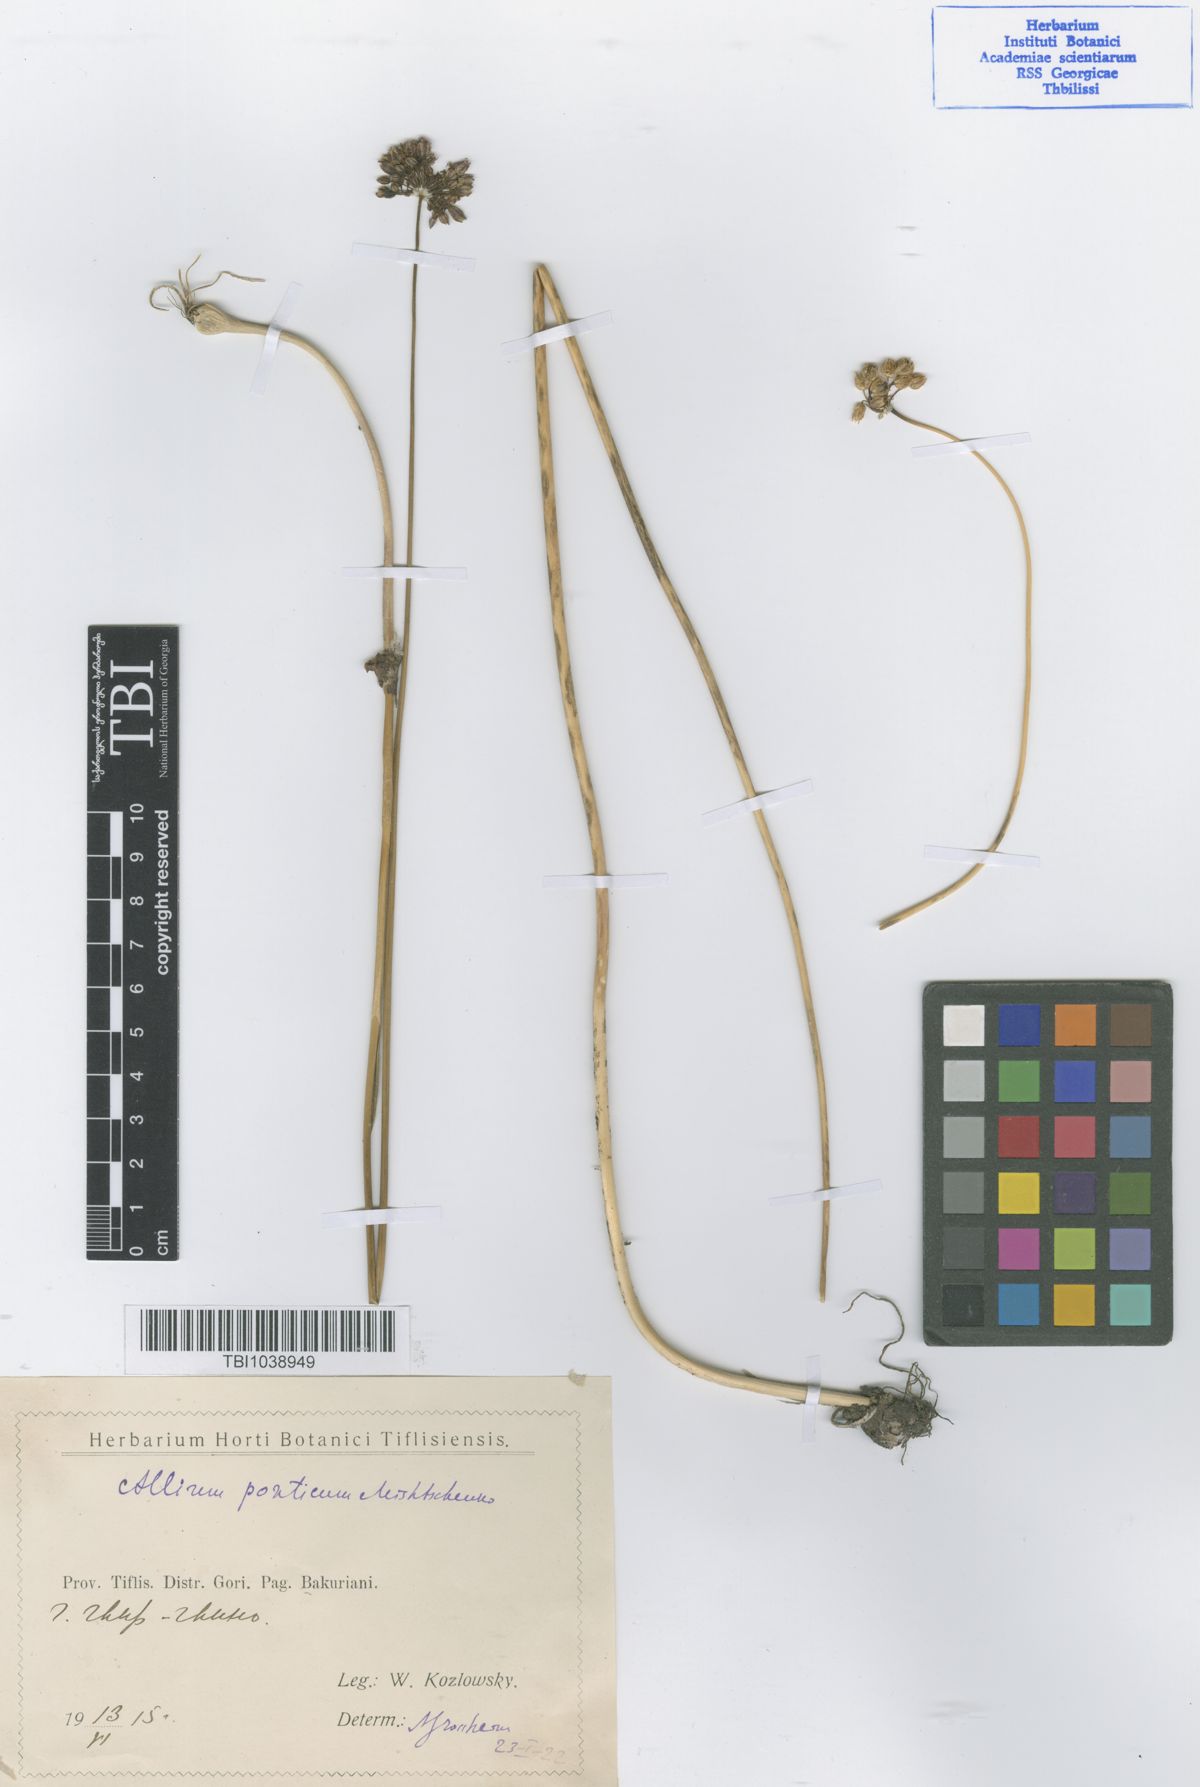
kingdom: Plantae
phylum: Tracheophyta
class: Liliopsida
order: Asparagales
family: Amaryllidaceae
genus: Allium
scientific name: Allium ponticum
